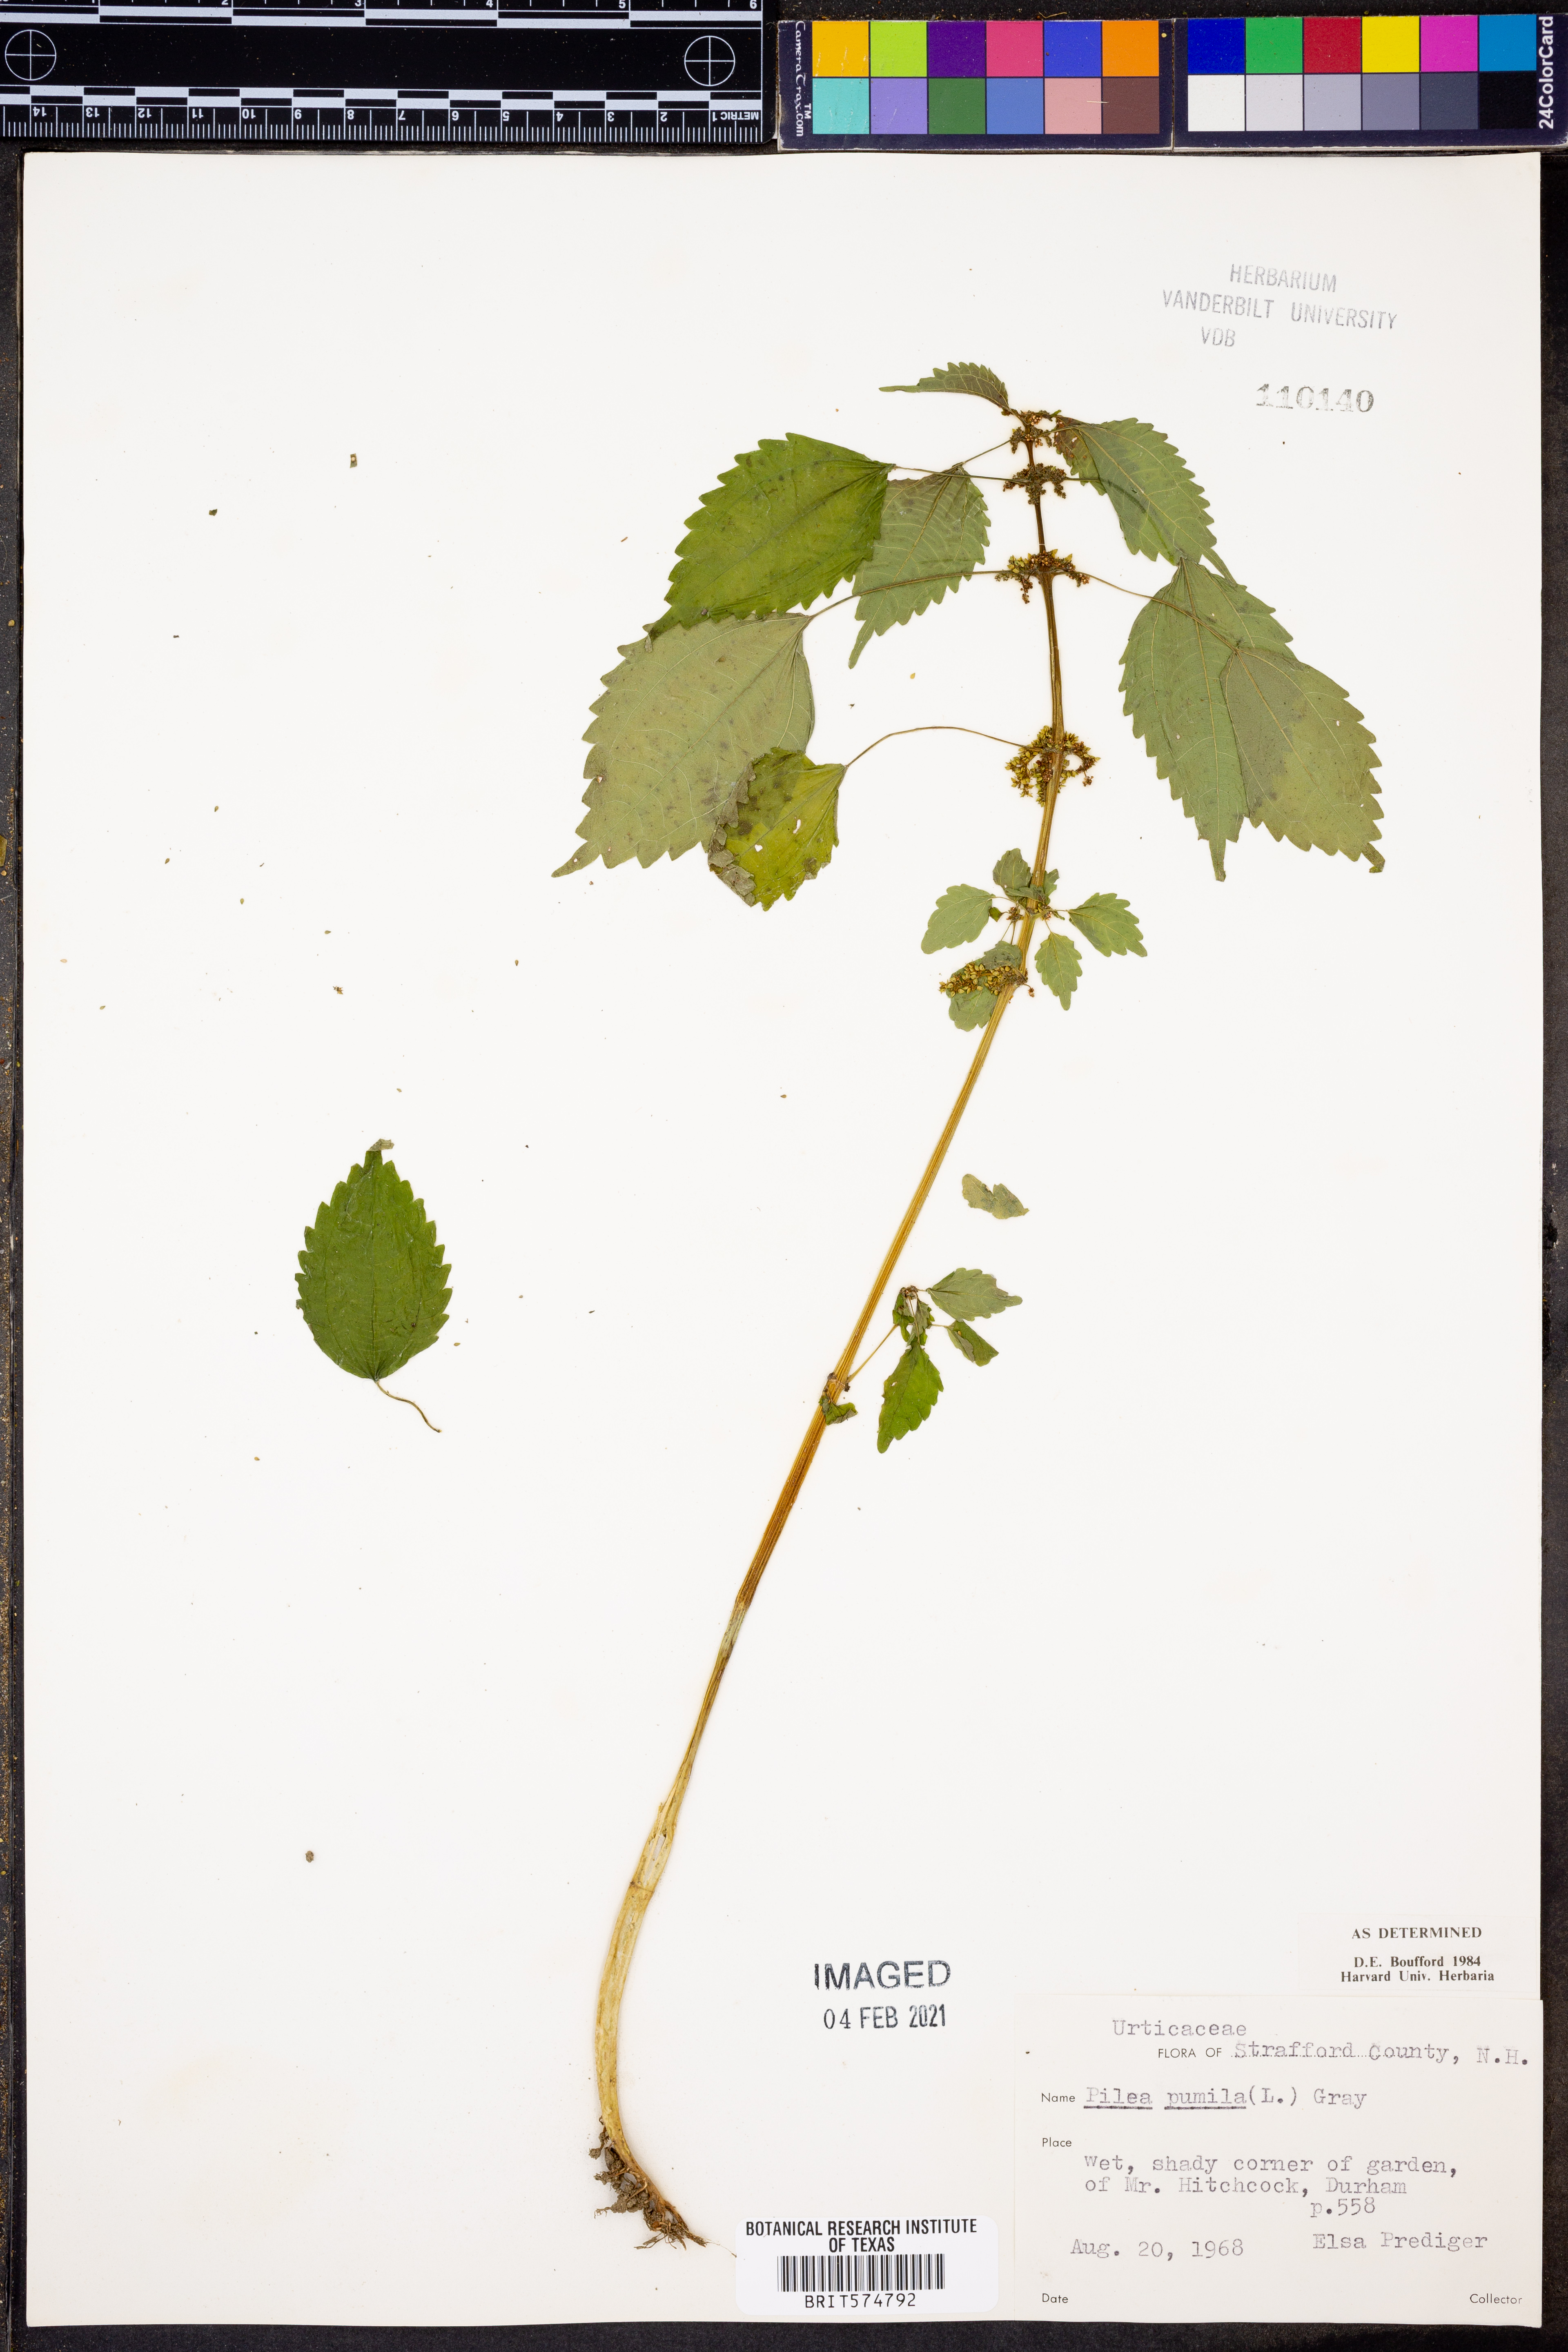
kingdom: Plantae
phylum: Tracheophyta
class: Magnoliopsida
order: Rosales
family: Urticaceae
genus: Pilea
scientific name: Pilea pumila
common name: Clearweed
